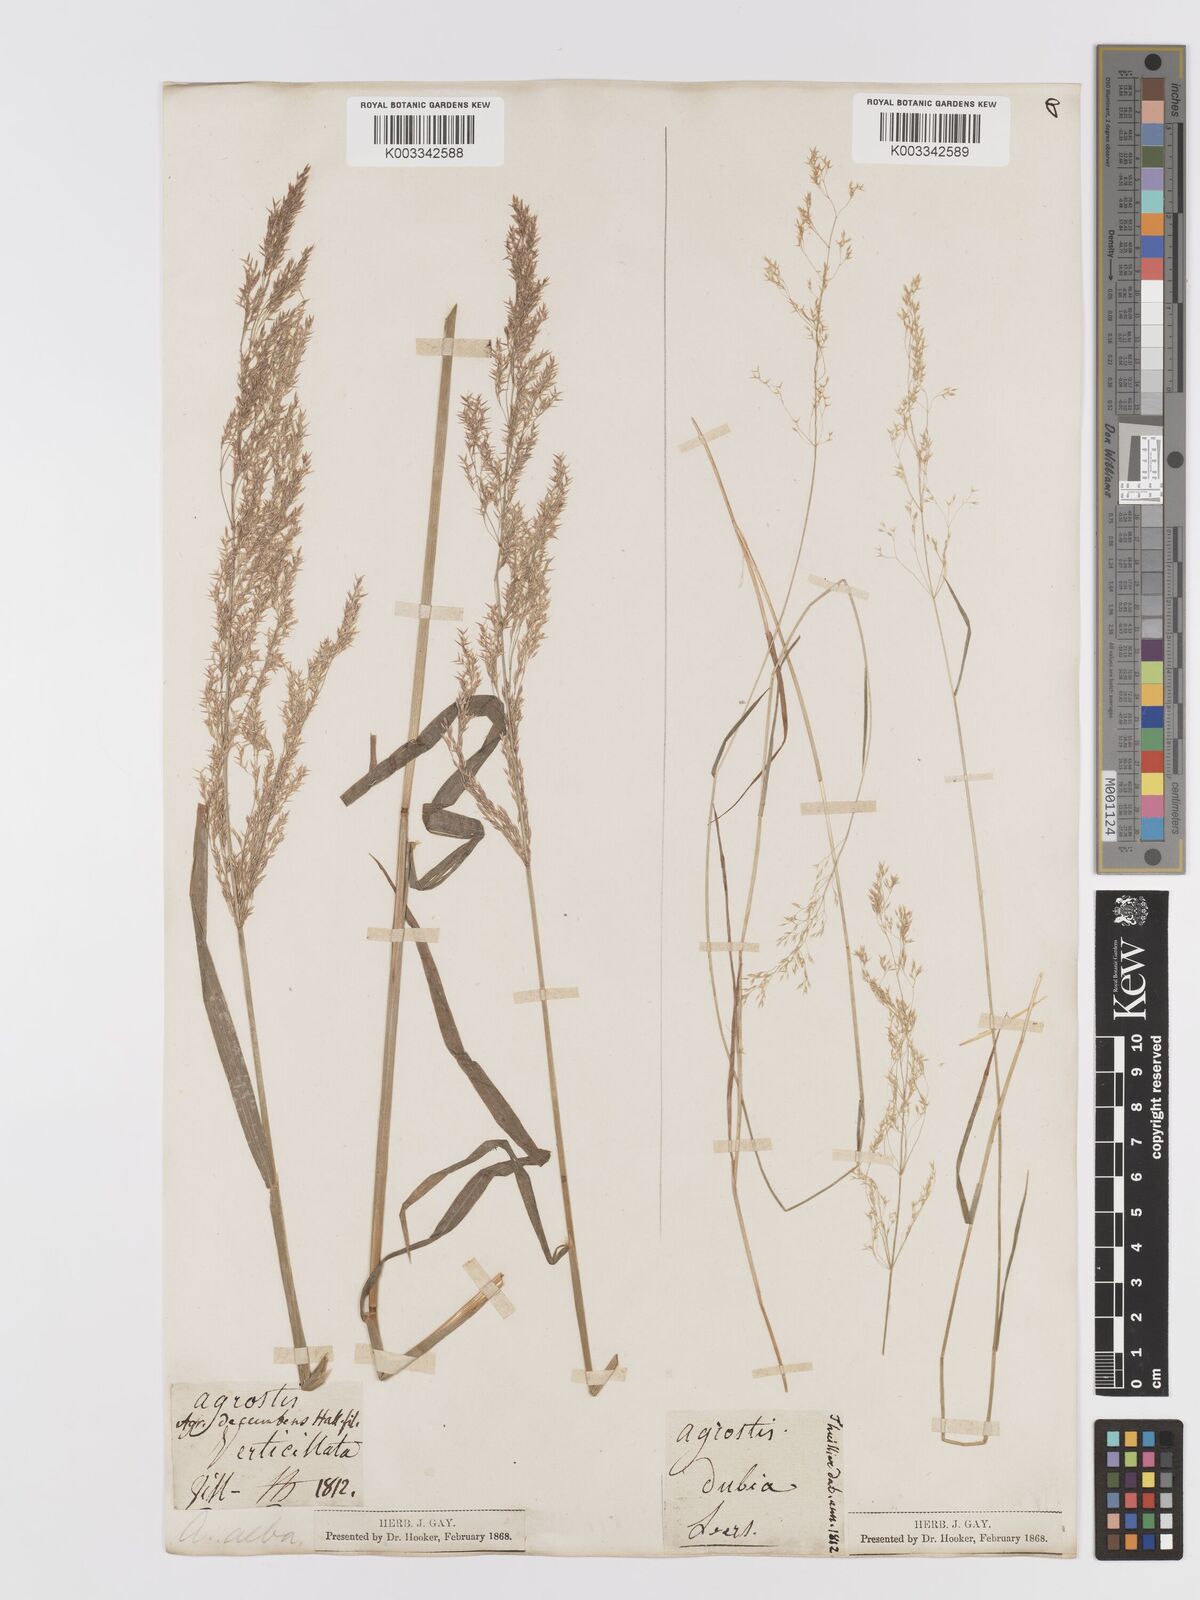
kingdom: Plantae
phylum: Tracheophyta
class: Liliopsida
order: Poales
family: Poaceae
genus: Agrostis
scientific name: Agrostis
